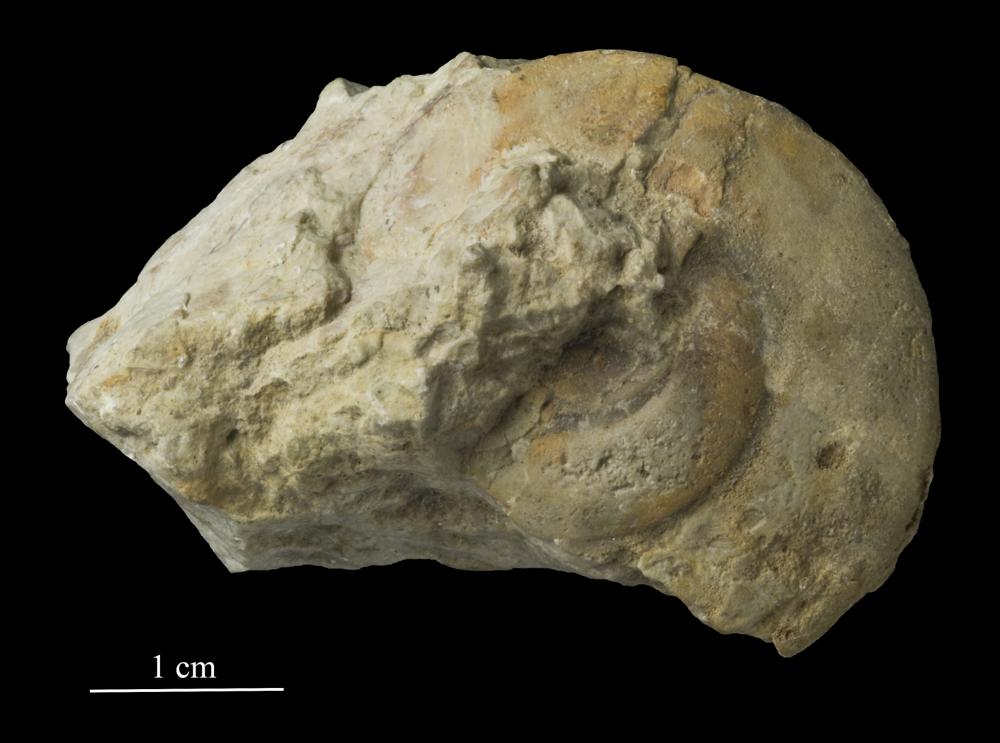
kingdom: Animalia
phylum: Mollusca
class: Gastropoda
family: Bellerophontidae
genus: Cymbularia
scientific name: Cymbularia lenticularis
